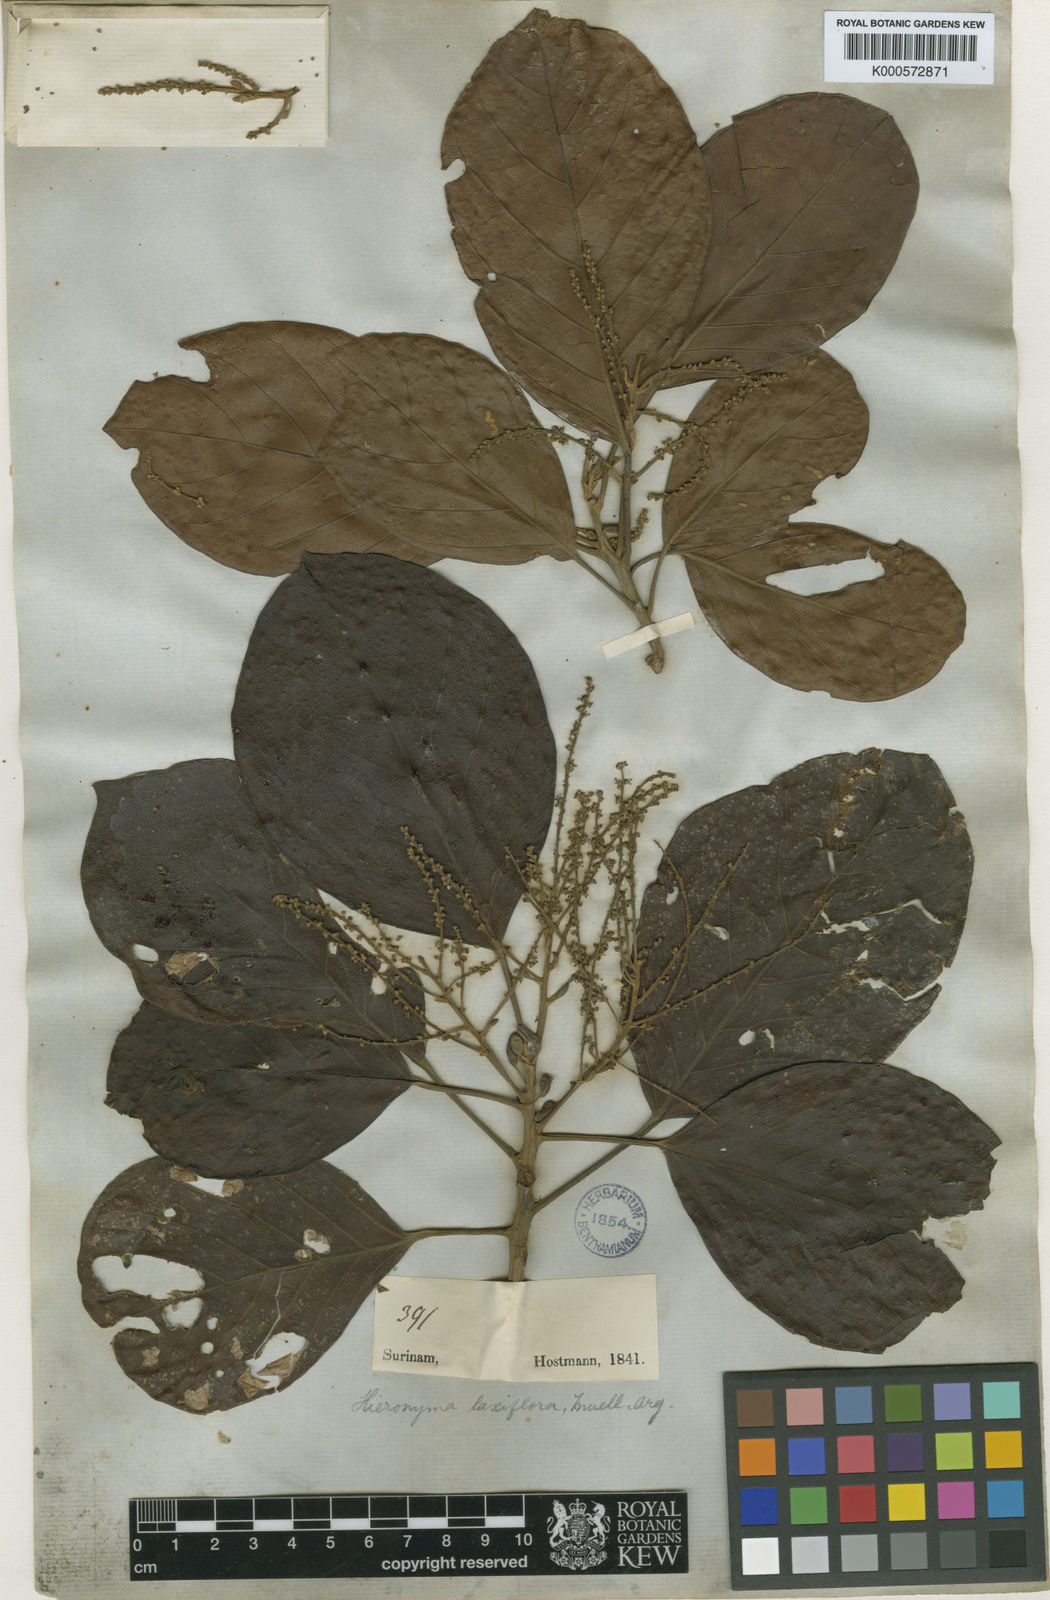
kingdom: Plantae
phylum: Tracheophyta
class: Magnoliopsida
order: Malpighiales
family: Phyllanthaceae
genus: Hieronyma
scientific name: Hieronyma
